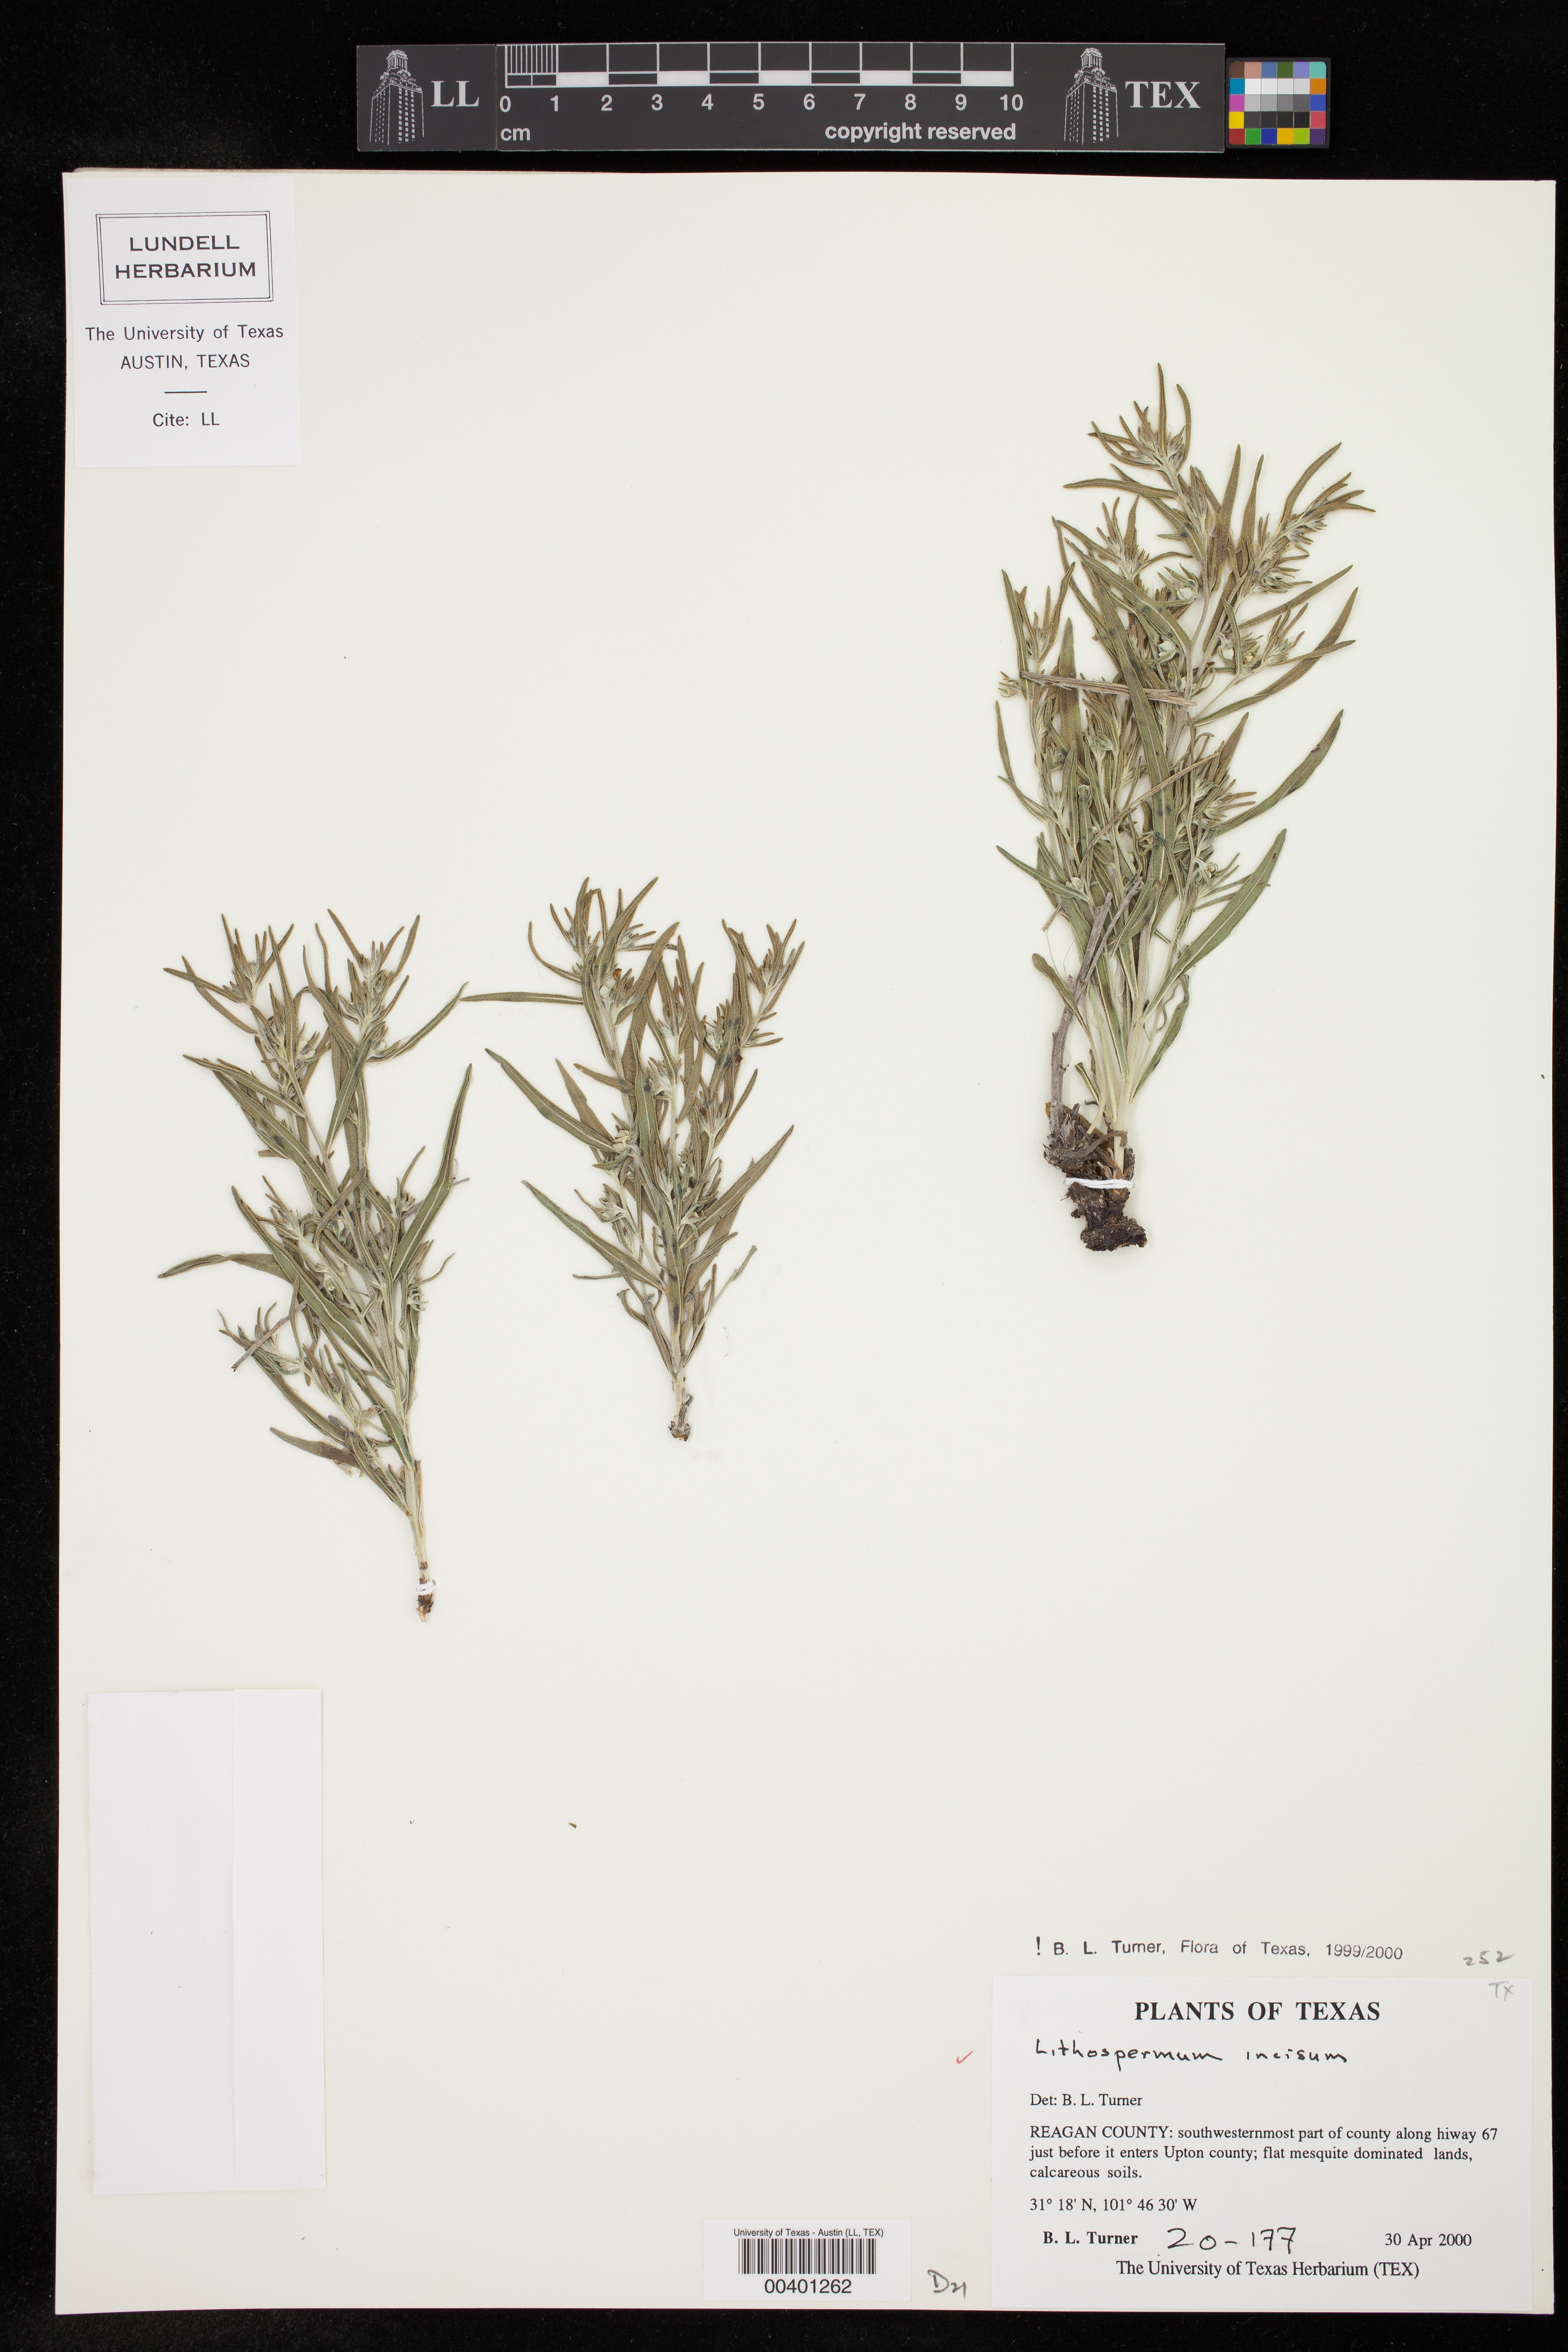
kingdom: Plantae
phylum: Tracheophyta
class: Magnoliopsida
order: Boraginales
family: Boraginaceae
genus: Lithospermum
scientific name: Lithospermum incisum
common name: Fringed gromwell
